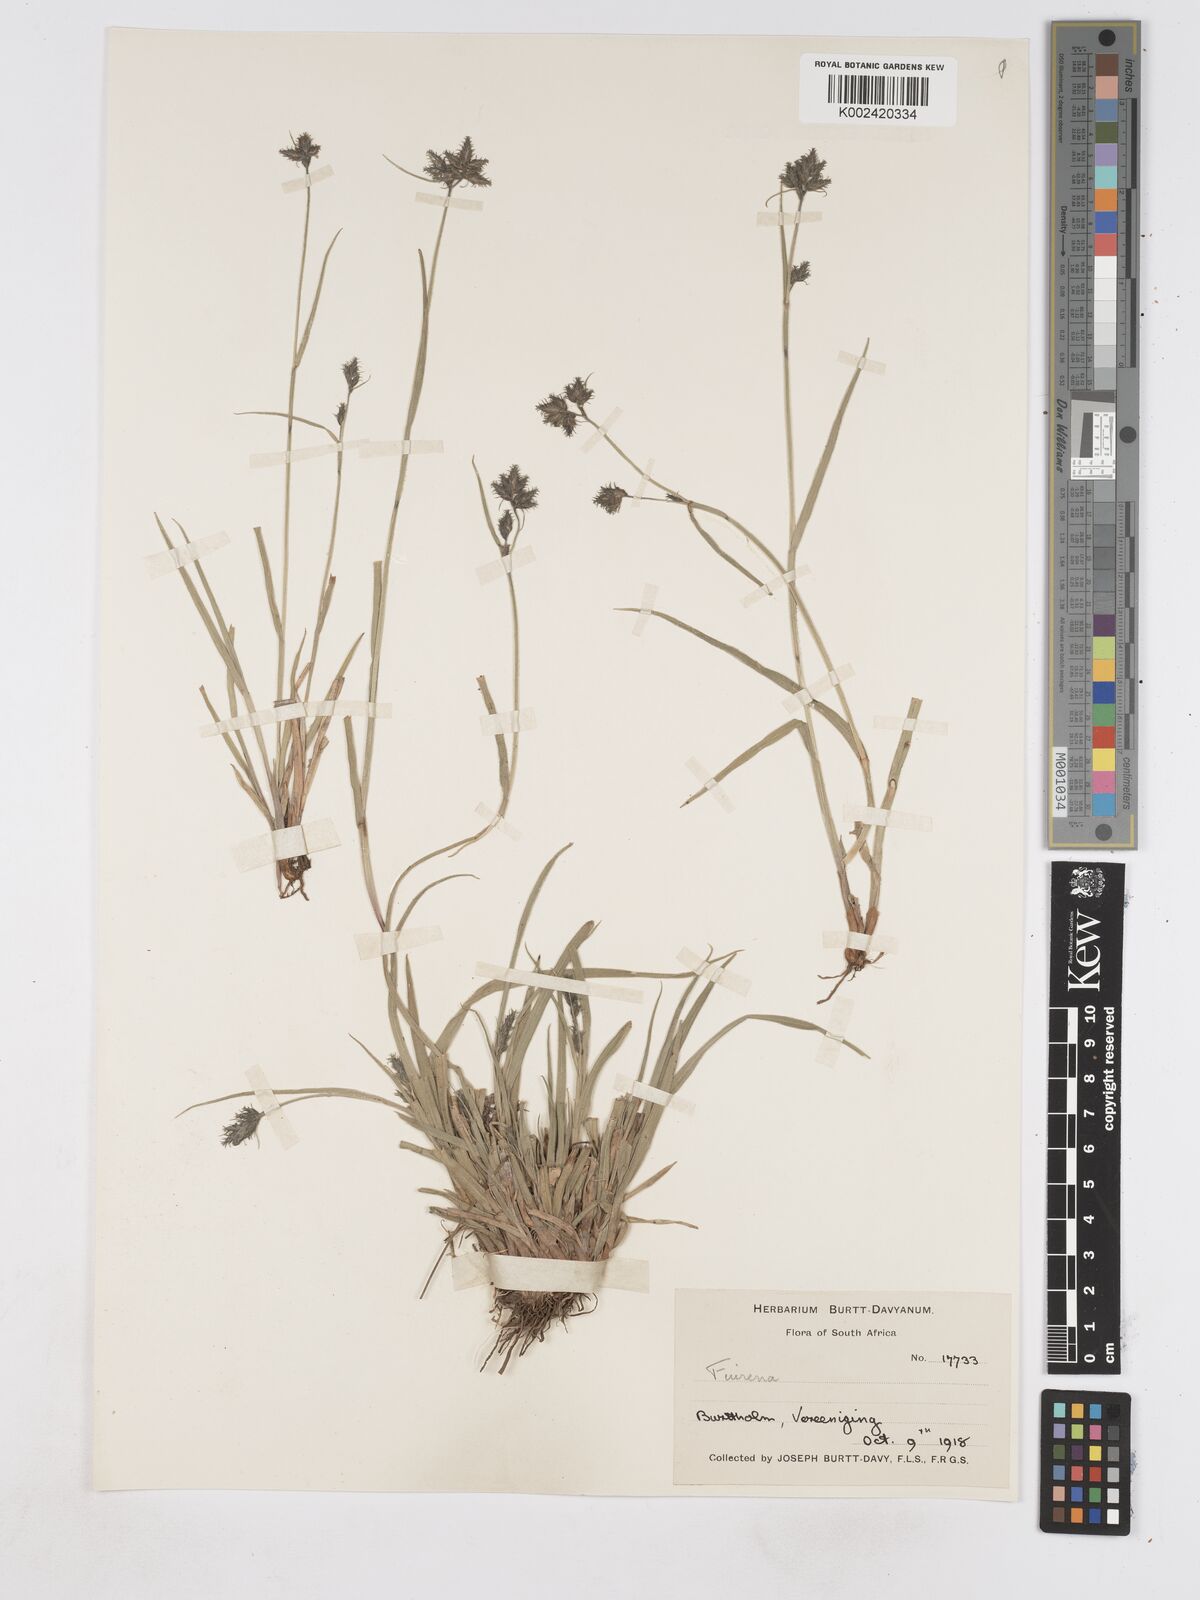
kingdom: Plantae
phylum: Tracheophyta
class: Liliopsida
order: Poales
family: Cyperaceae
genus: Fuirena
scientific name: Fuirena
